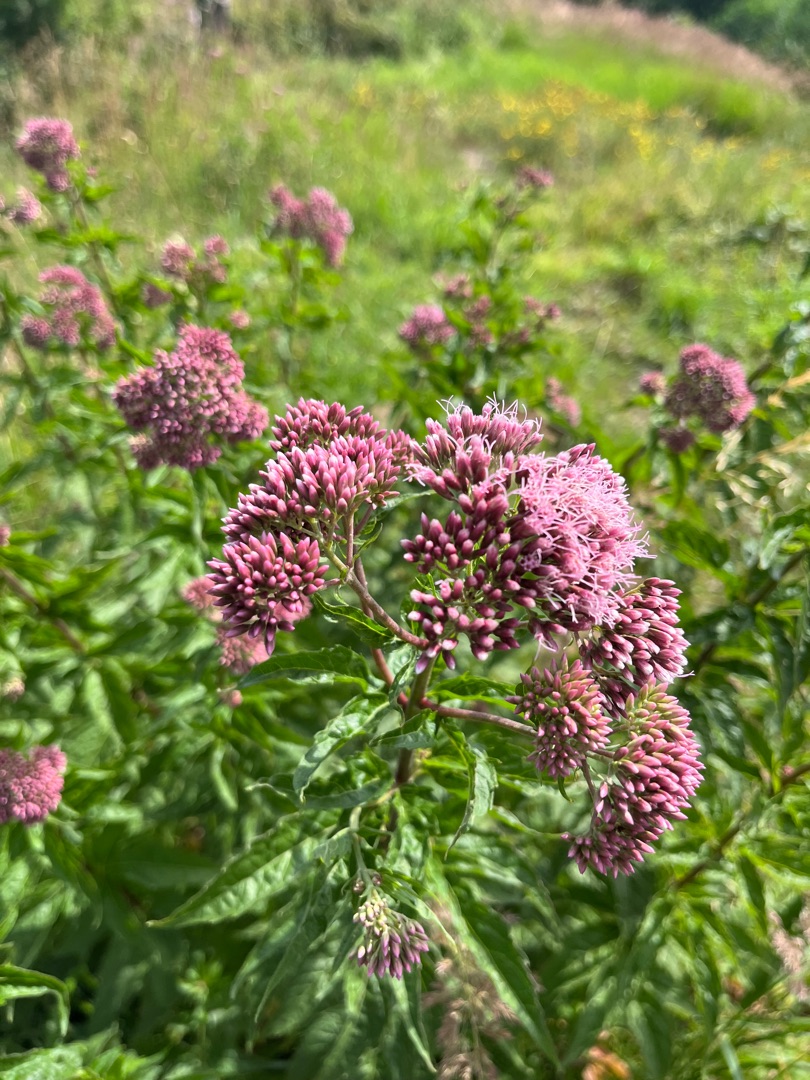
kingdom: Plantae
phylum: Tracheophyta
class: Magnoliopsida
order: Asterales
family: Asteraceae
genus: Eupatorium
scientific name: Eupatorium cannabinum
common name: Hjortetrøst
